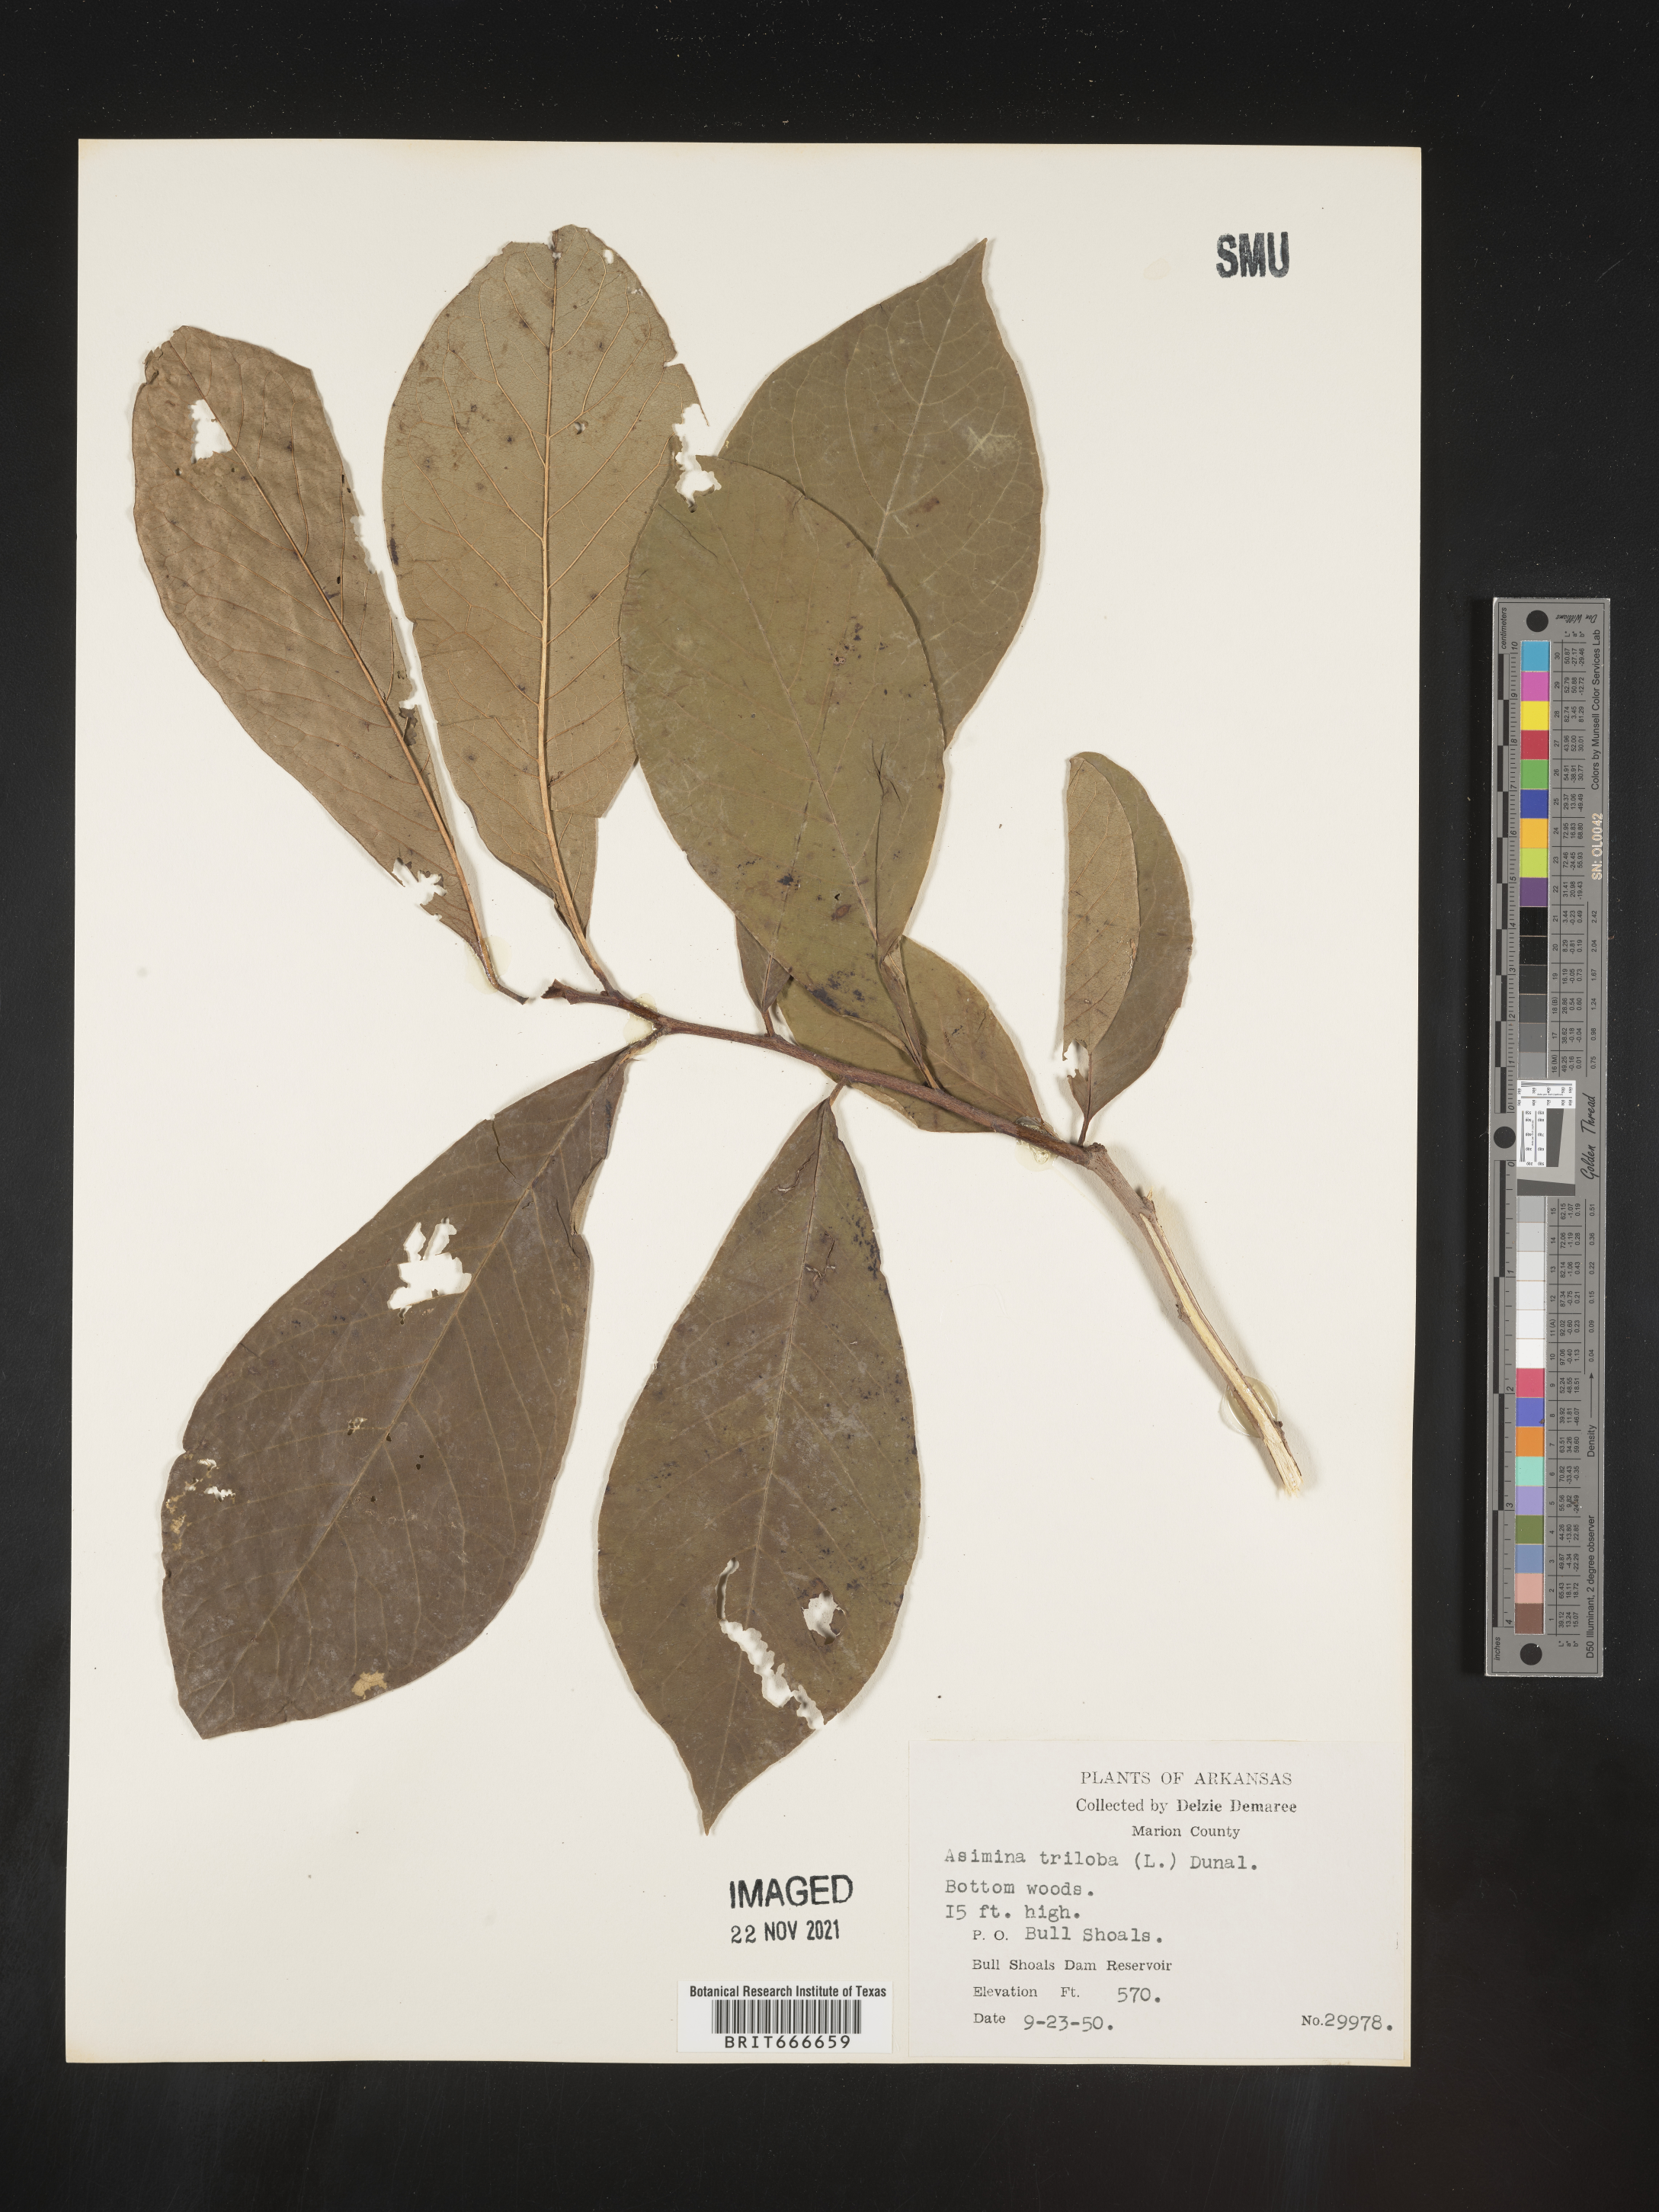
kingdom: Plantae
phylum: Tracheophyta
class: Magnoliopsida
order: Magnoliales
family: Annonaceae
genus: Asimina
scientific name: Asimina triloba
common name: Dog-banana
